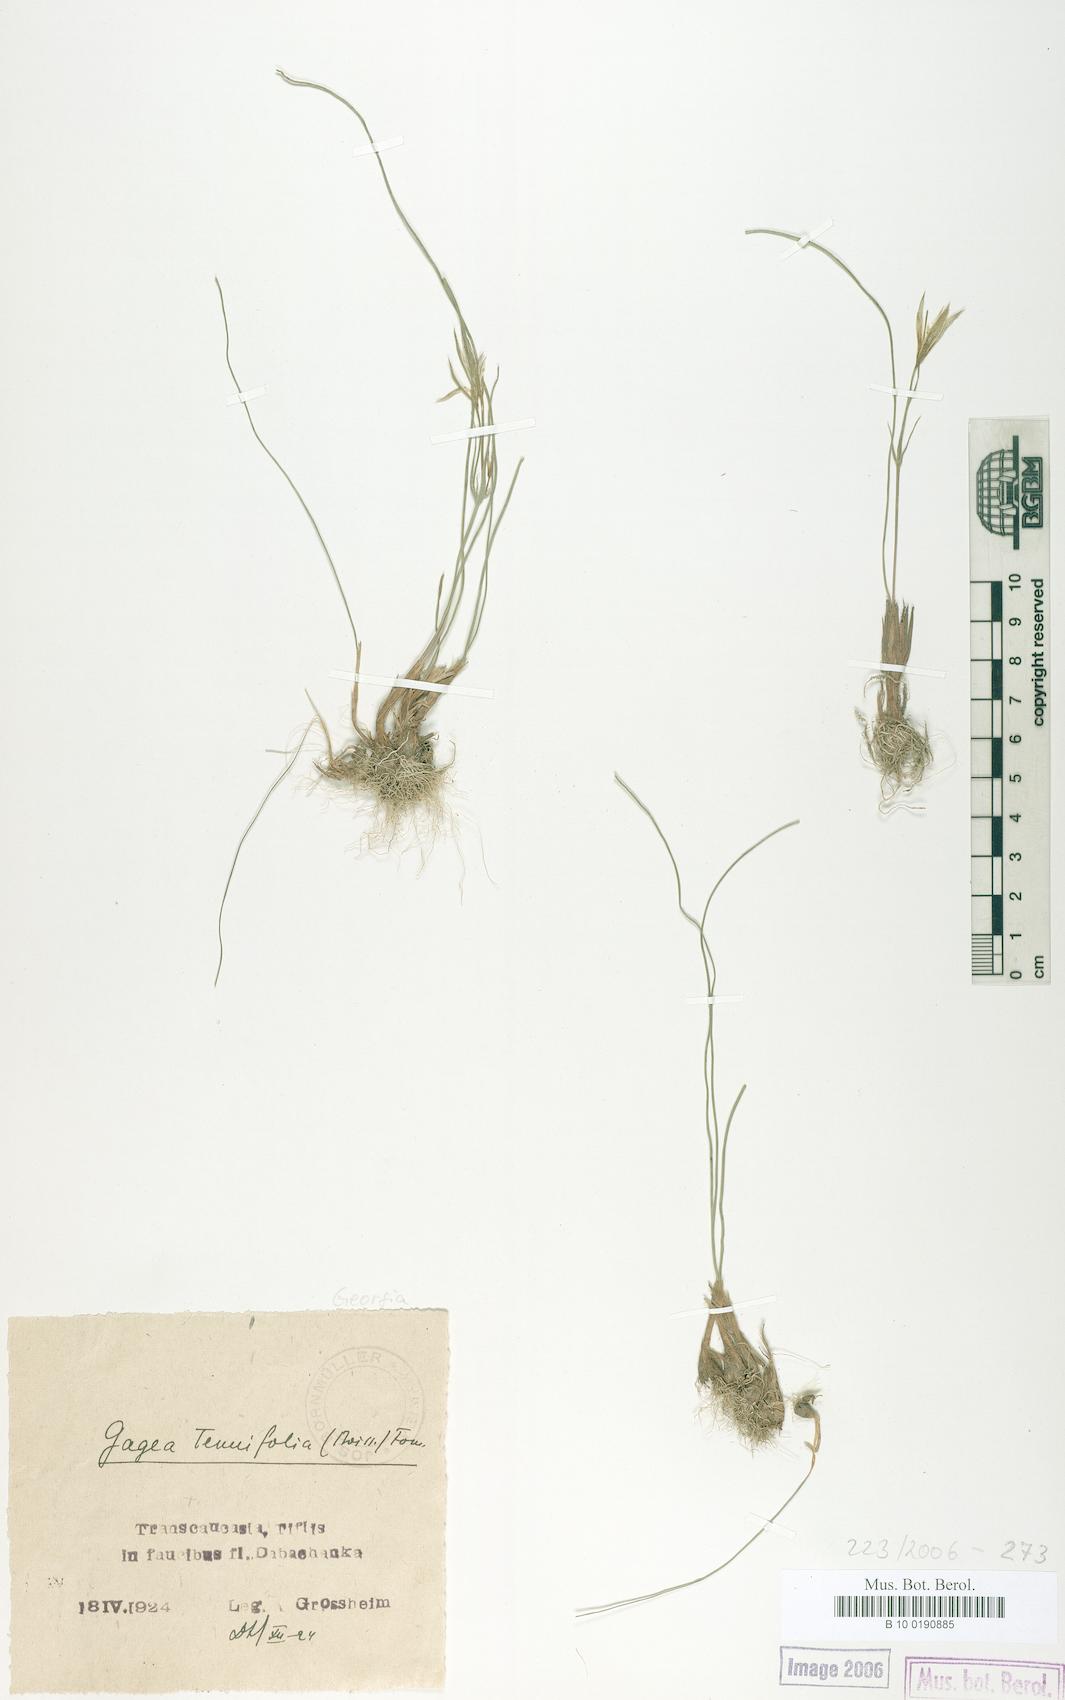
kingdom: Plantae
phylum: Tracheophyta
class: Liliopsida
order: Liliales
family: Liliaceae
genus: Gagea
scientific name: Gagea reticulata
